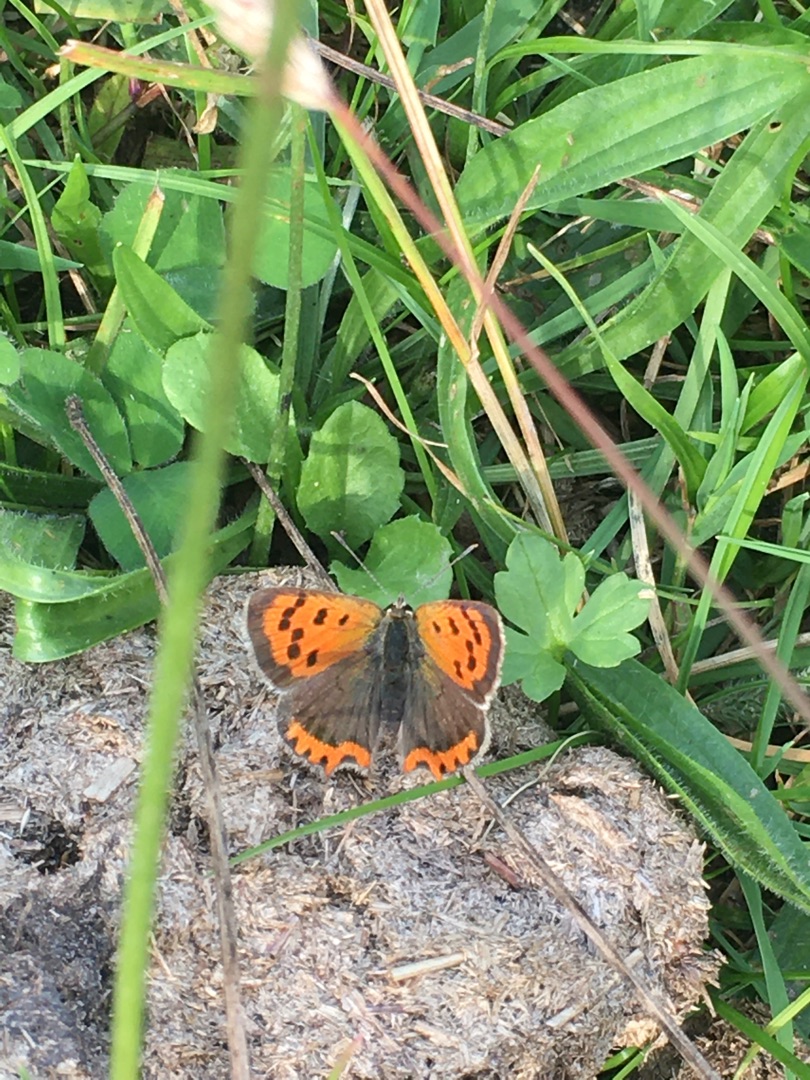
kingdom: Animalia
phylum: Arthropoda
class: Insecta
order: Lepidoptera
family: Lycaenidae
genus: Lycaena
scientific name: Lycaena phlaeas
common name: Lille ildfugl
